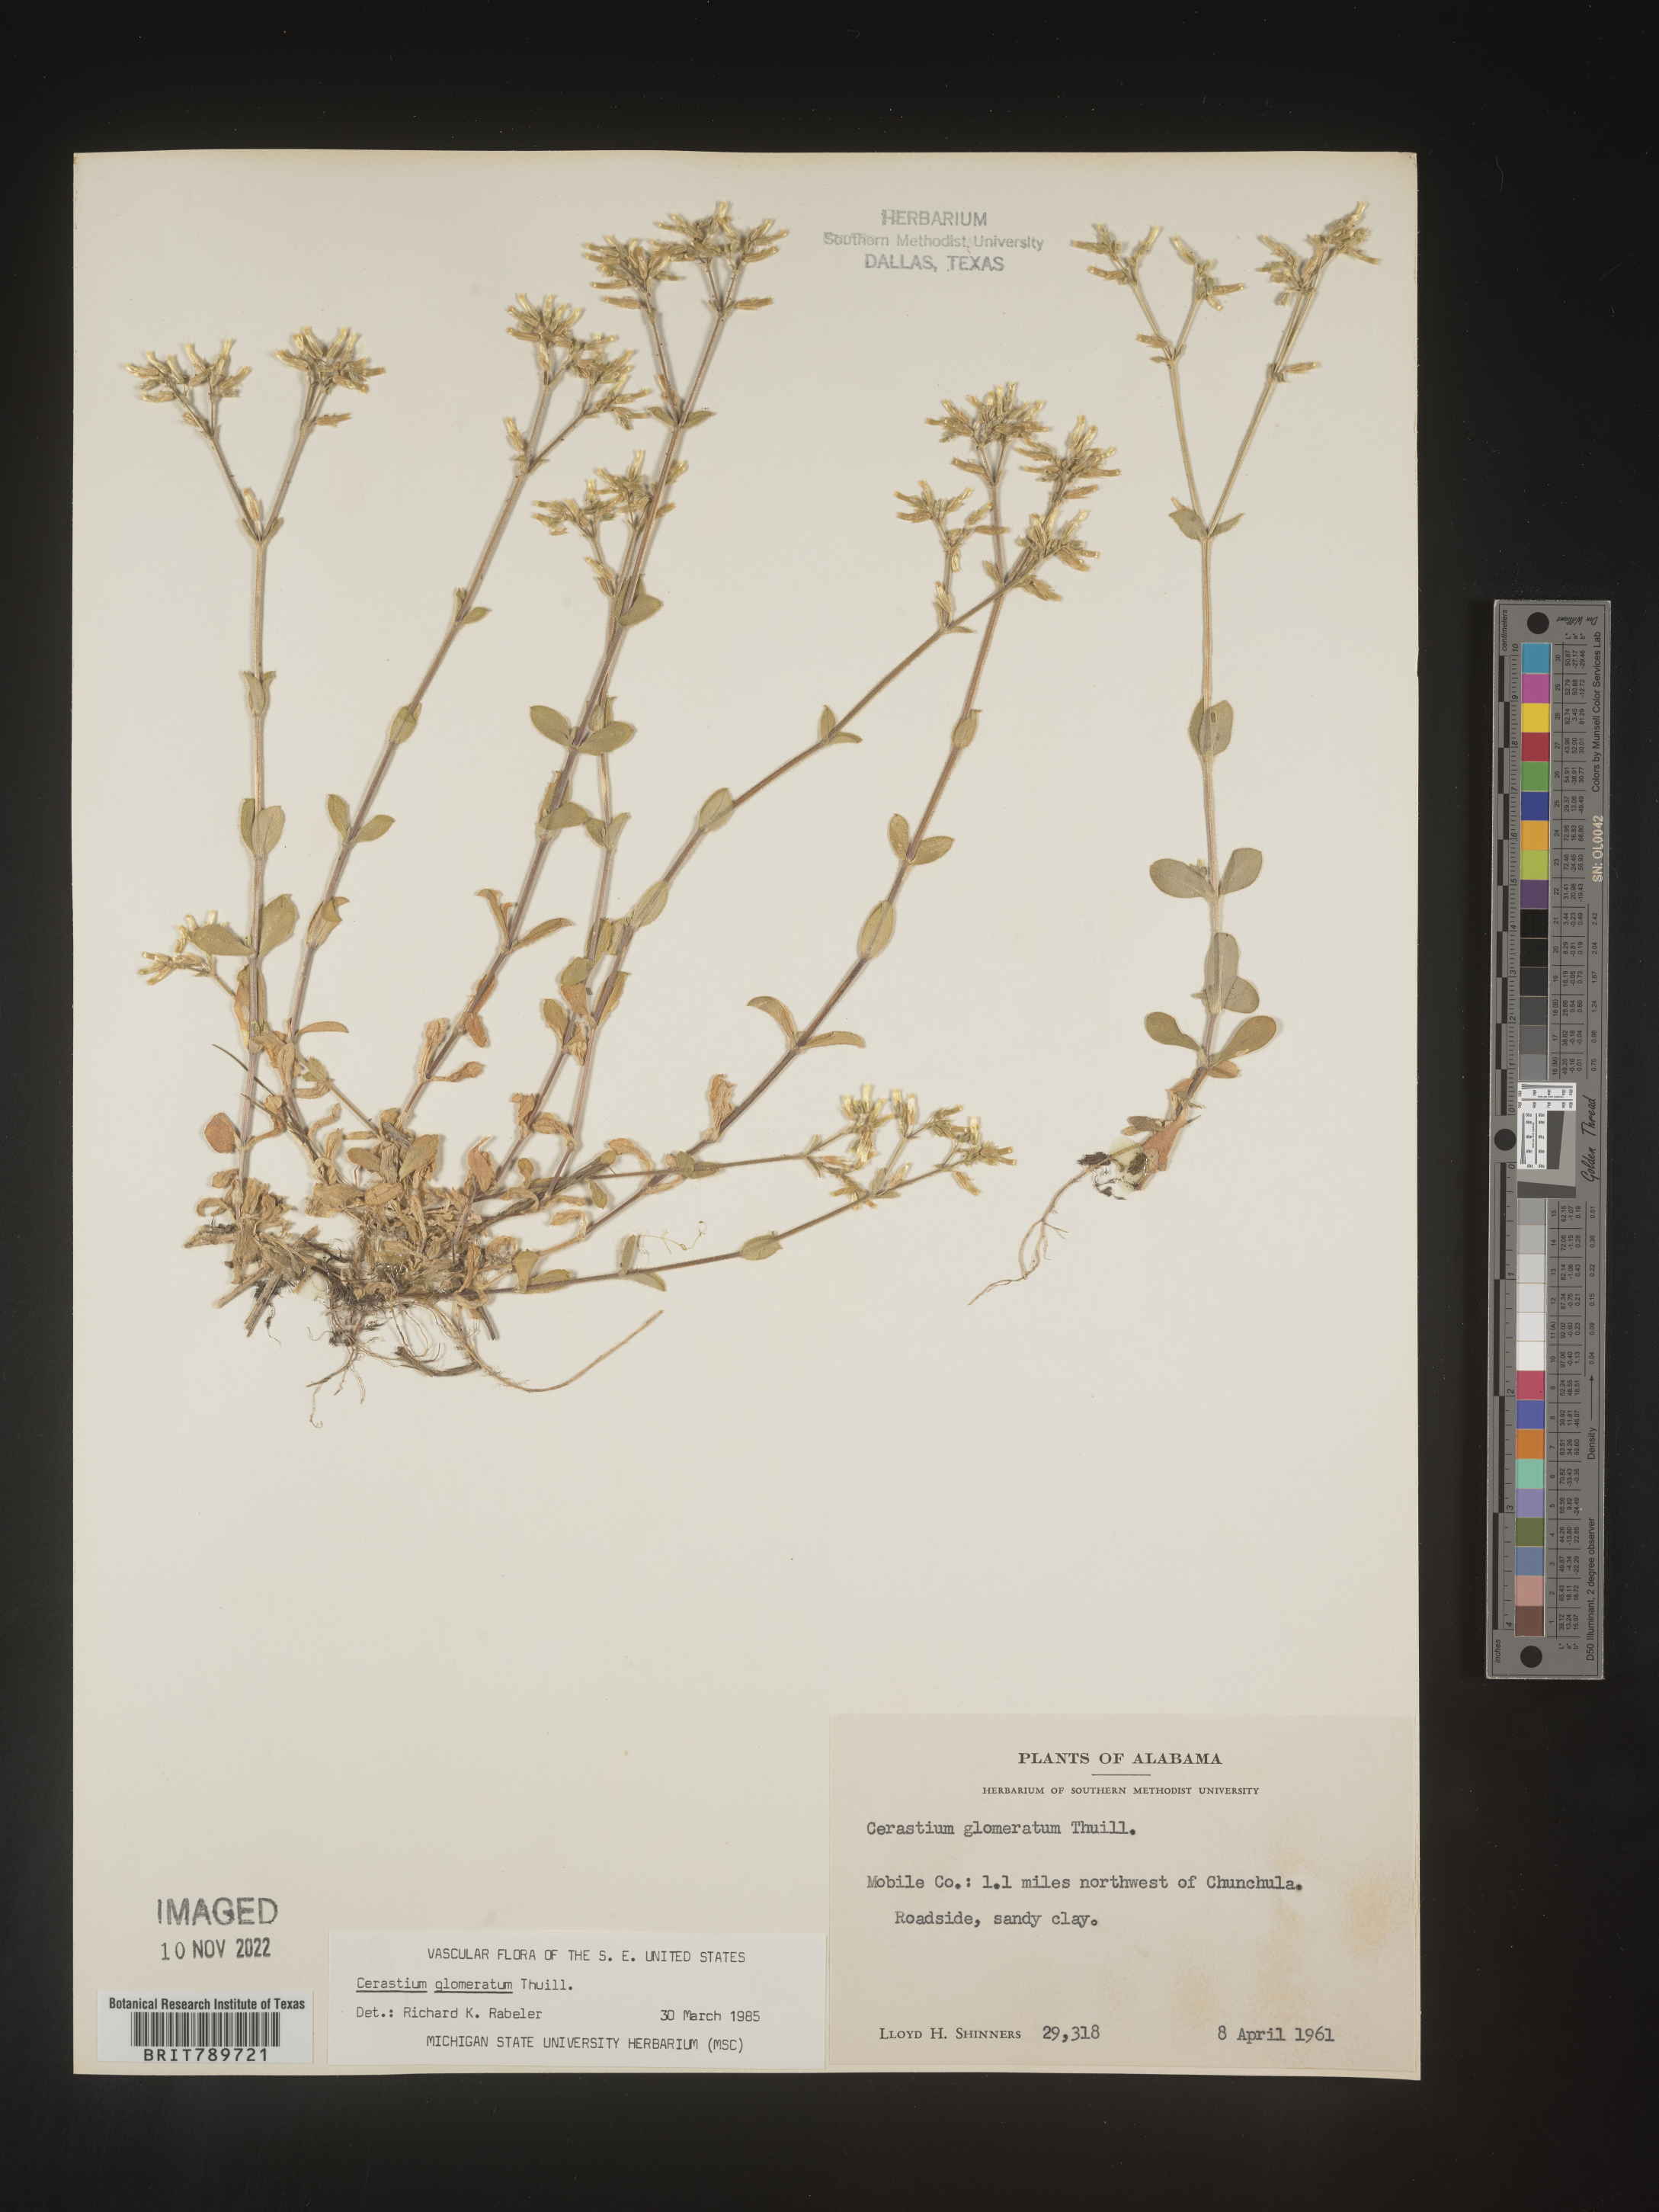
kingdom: Plantae
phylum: Tracheophyta
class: Magnoliopsida
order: Caryophyllales
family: Caryophyllaceae
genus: Cerastium
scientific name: Cerastium glomeratum
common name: Sticky chickweed
